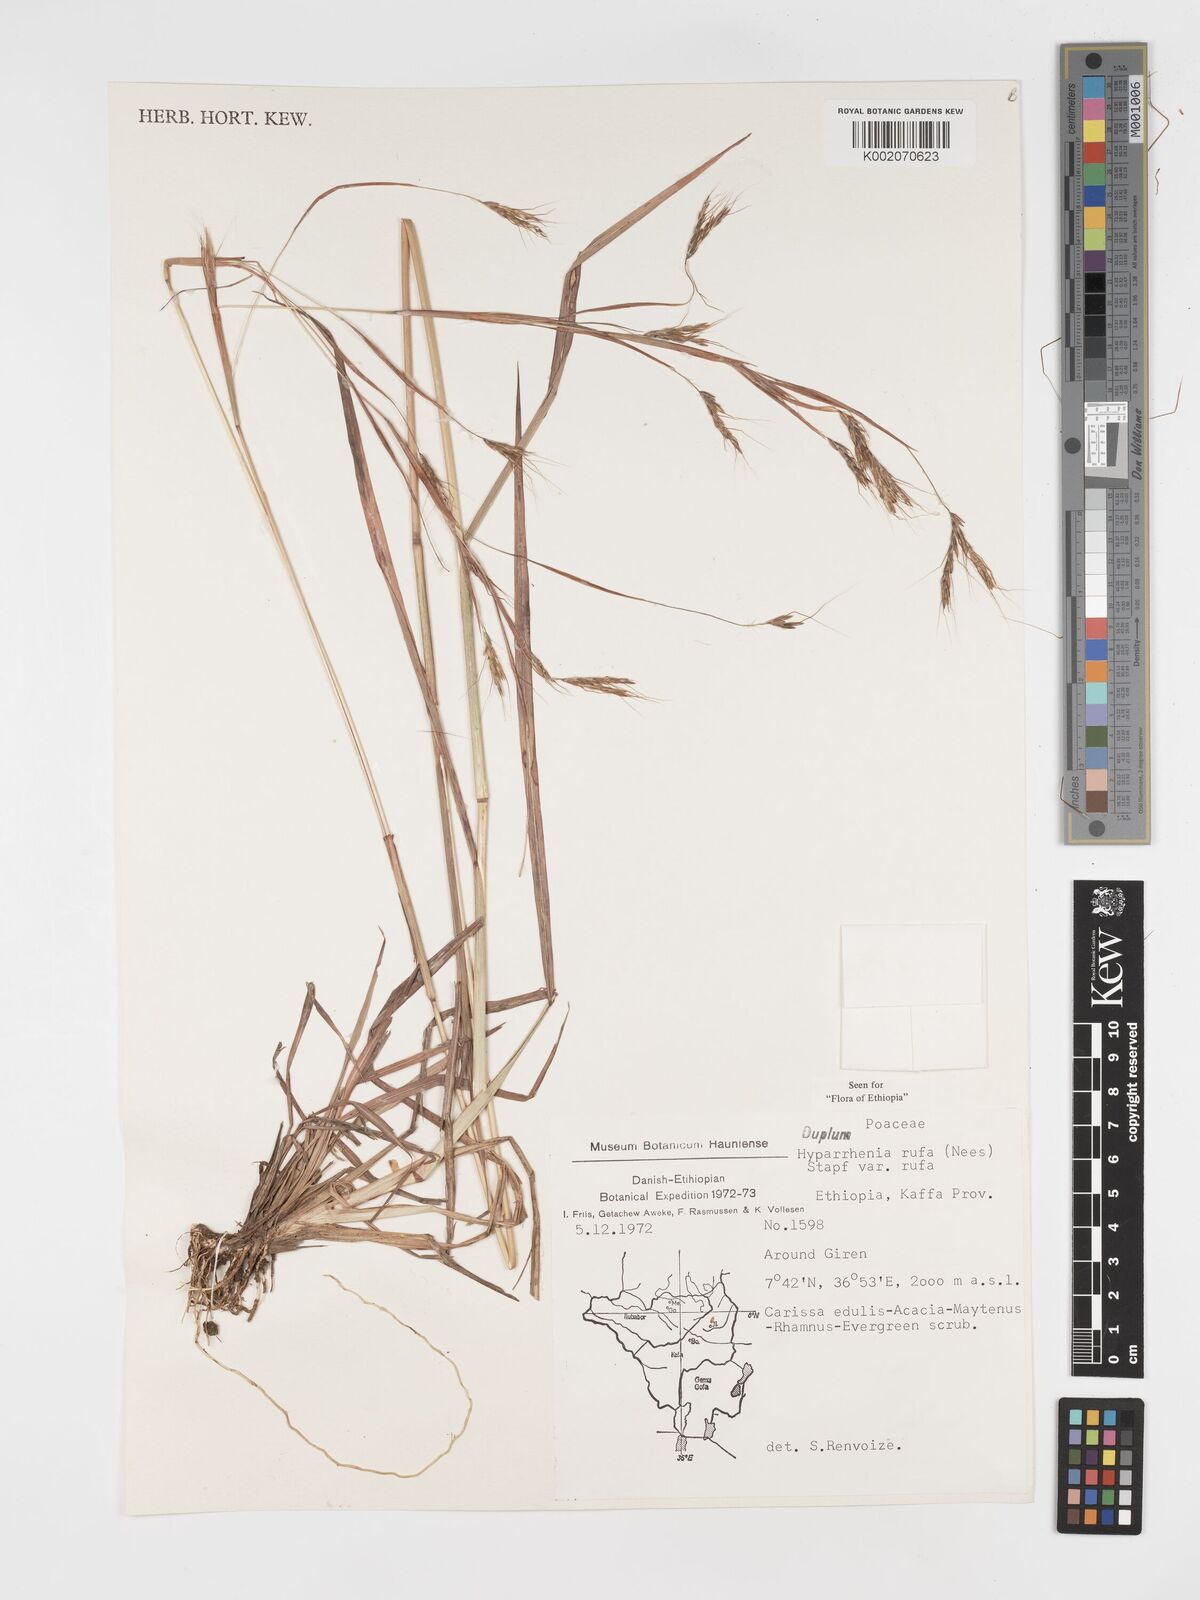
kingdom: Plantae
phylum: Tracheophyta
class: Liliopsida
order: Poales
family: Poaceae
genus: Hyparrhenia
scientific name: Hyparrhenia nyassae
